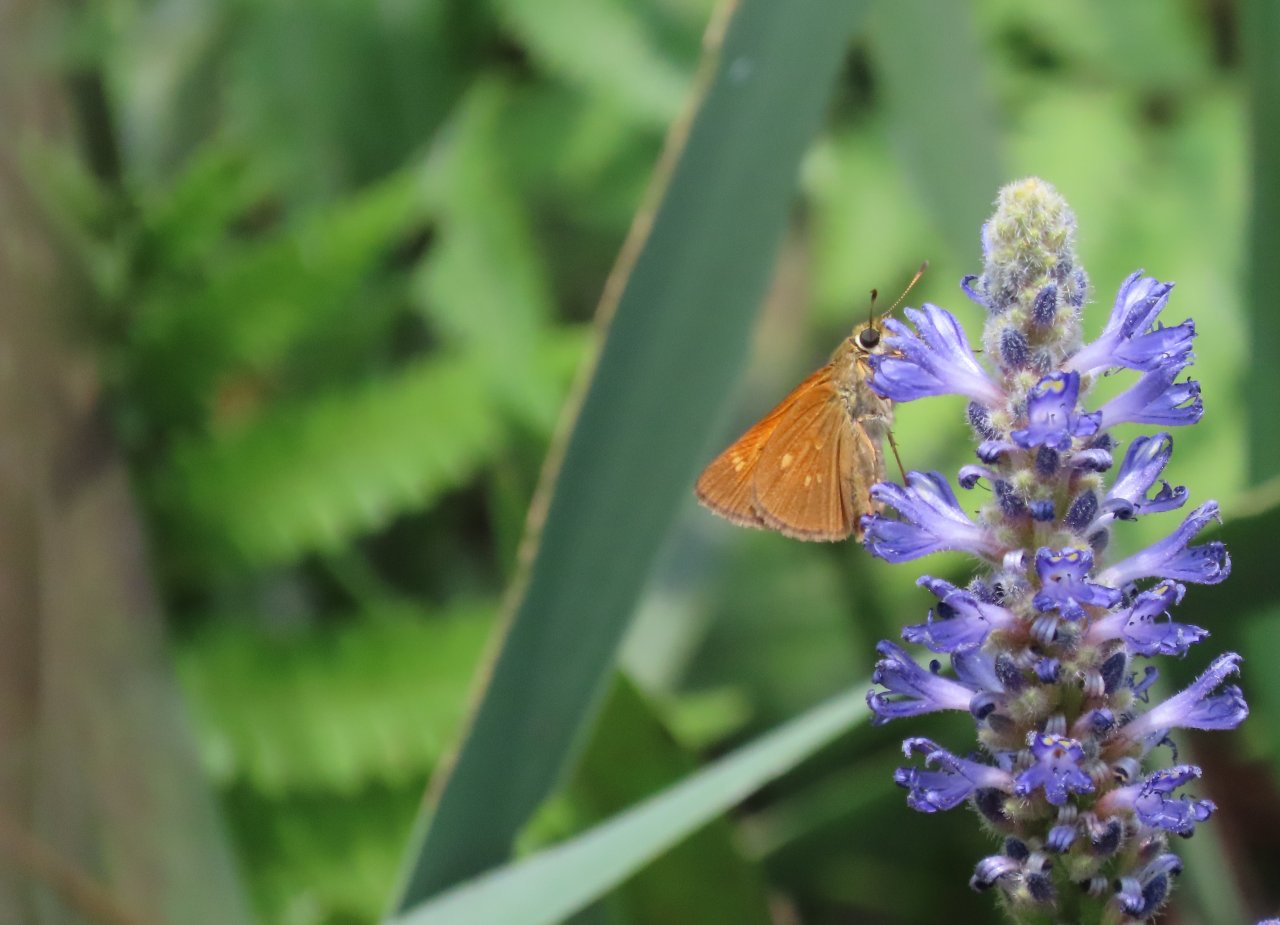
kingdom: Animalia
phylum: Arthropoda
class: Insecta
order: Lepidoptera
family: Hesperiidae
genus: Poanes
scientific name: Poanes yehl
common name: Yehl Skipper
